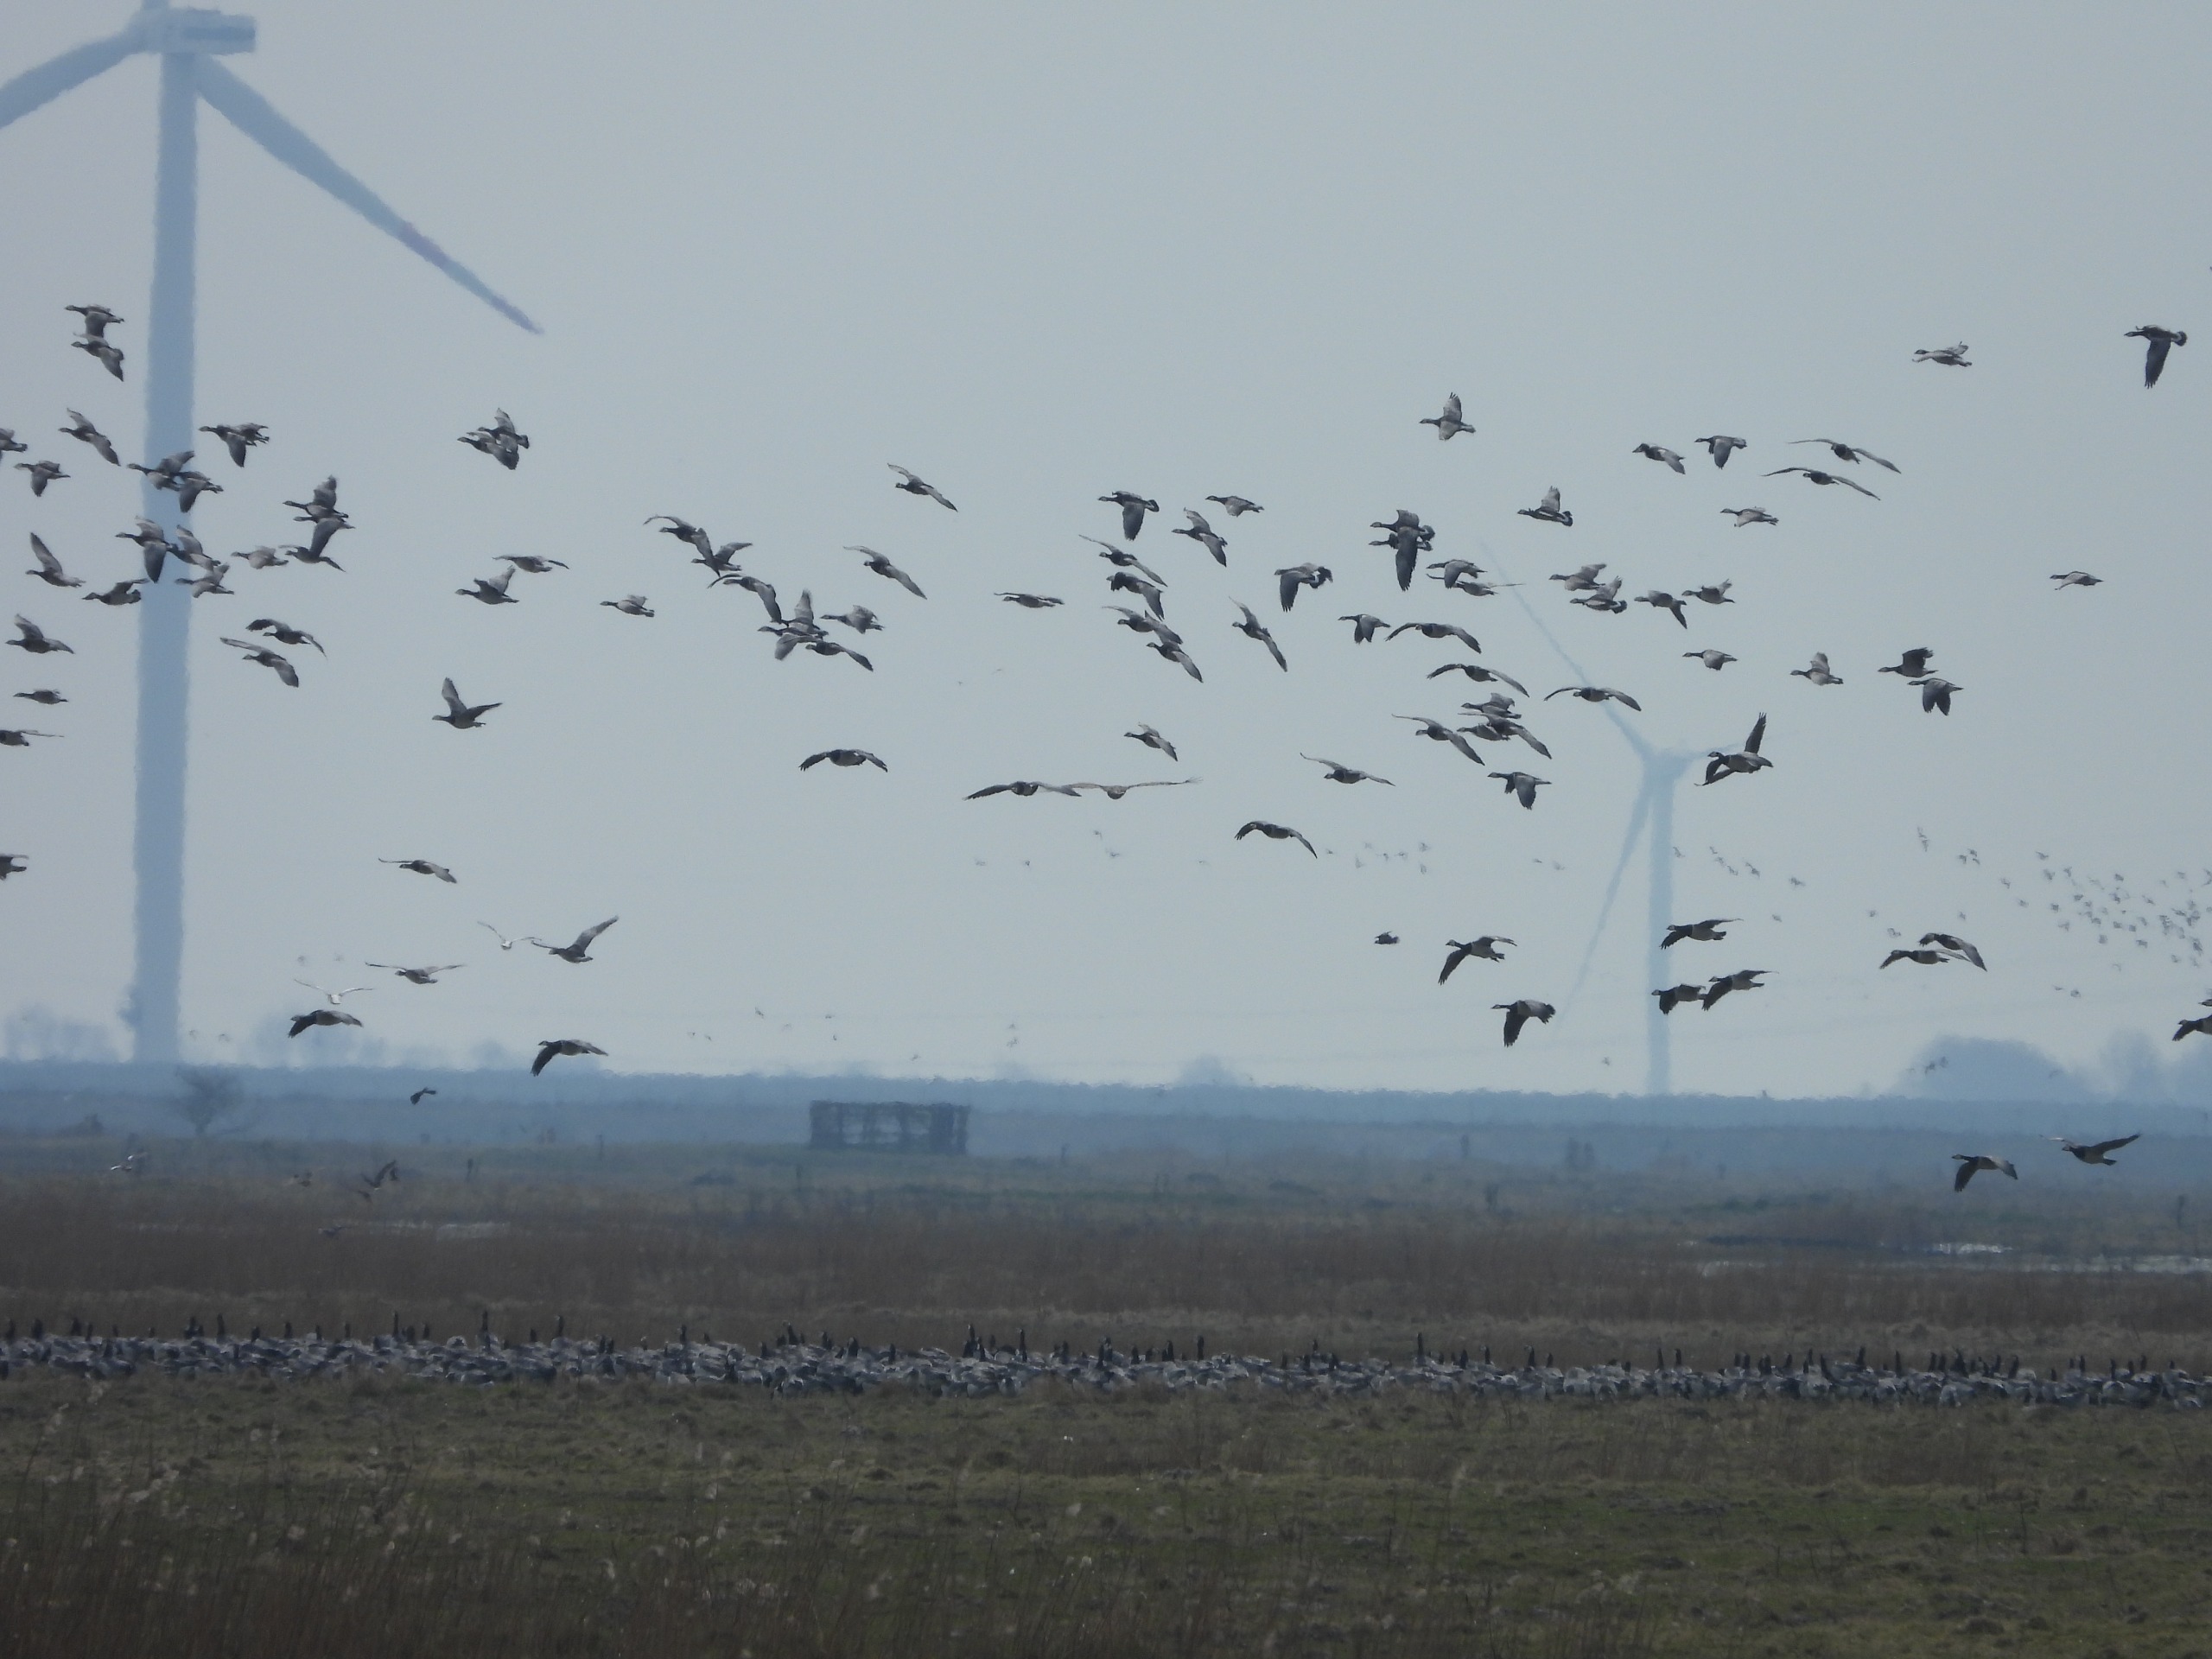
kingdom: Animalia
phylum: Chordata
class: Aves
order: Anseriformes
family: Anatidae
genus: Branta
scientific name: Branta leucopsis
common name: Bramgås
